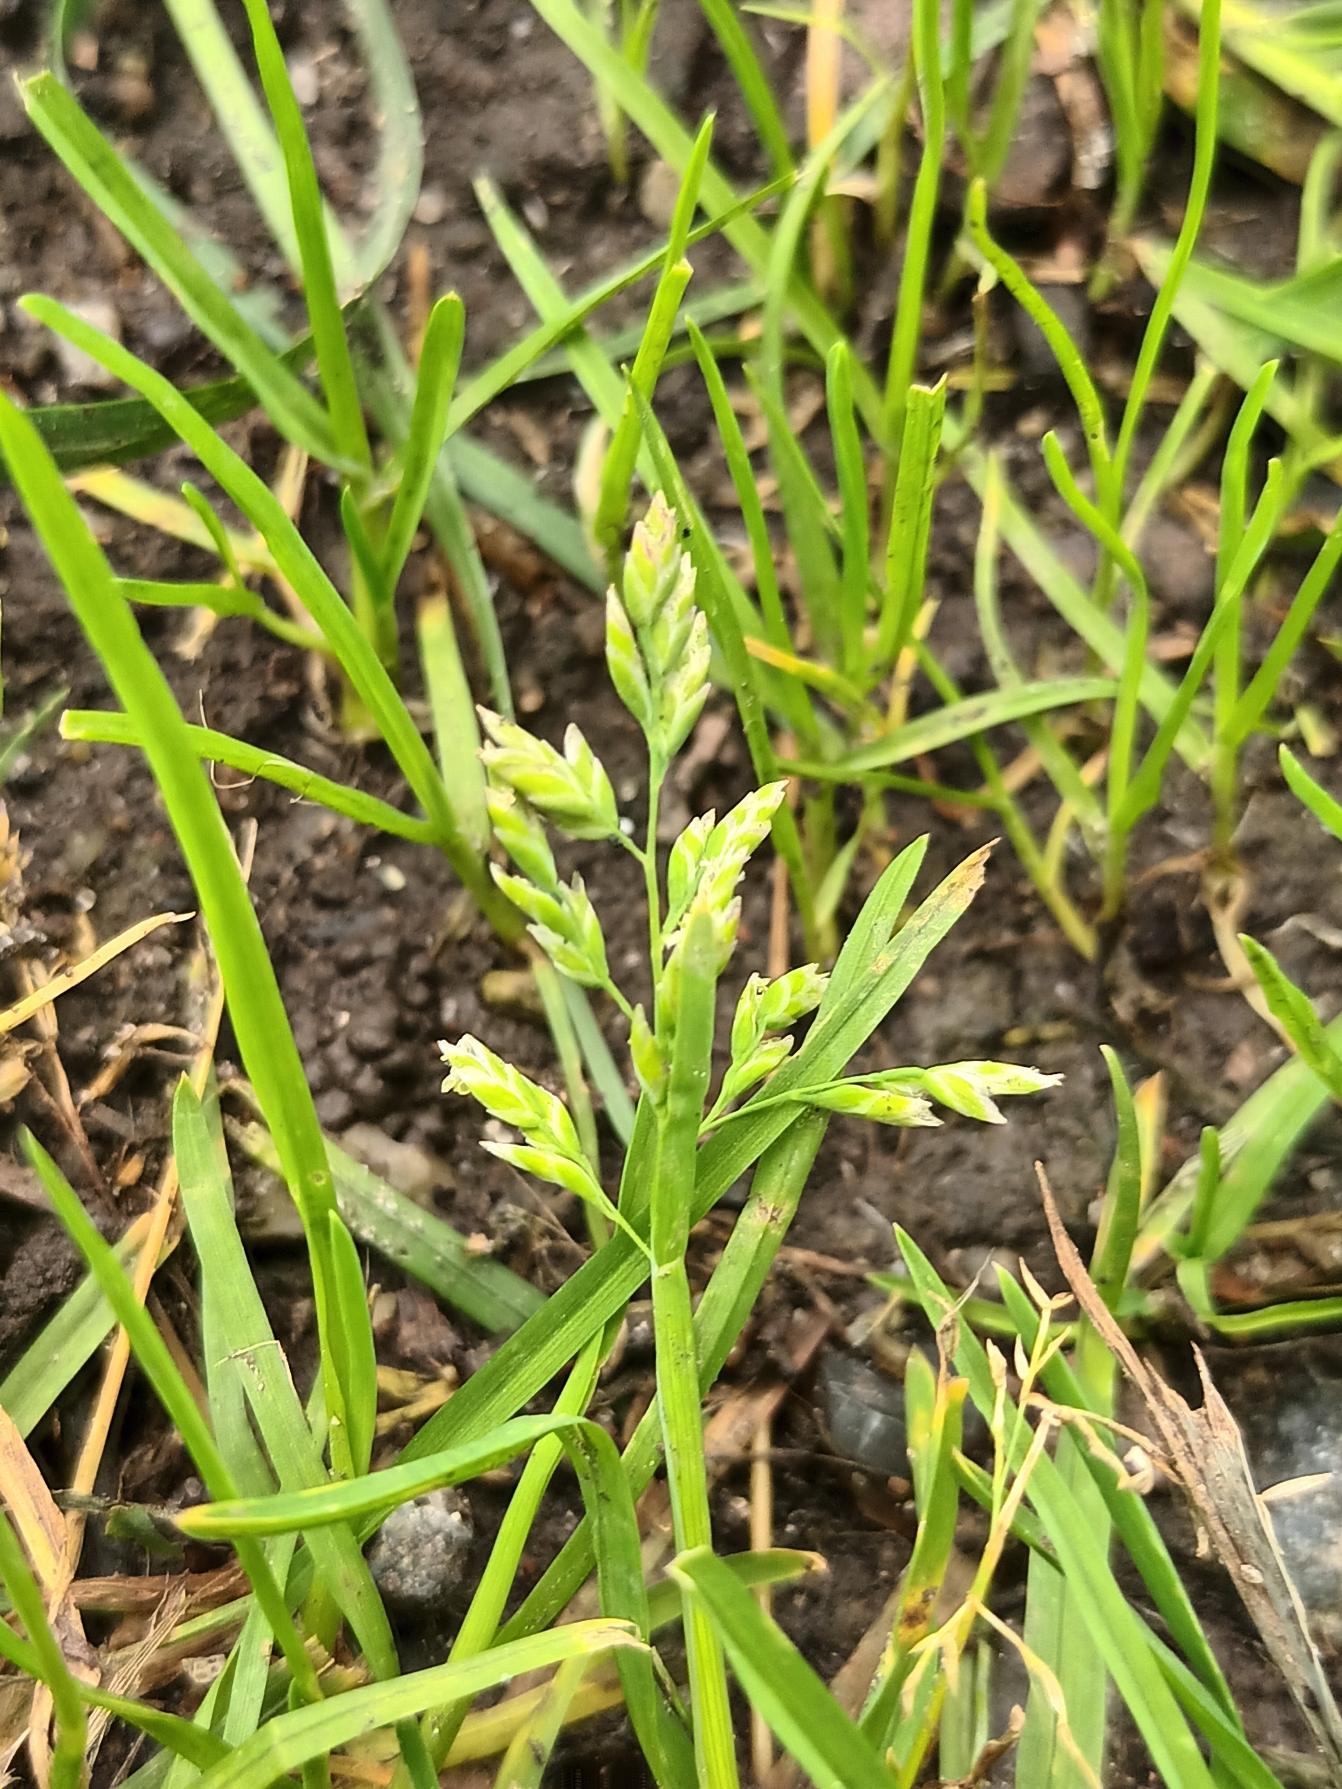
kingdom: Plantae
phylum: Tracheophyta
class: Liliopsida
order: Poales
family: Poaceae
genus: Poa
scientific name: Poa annua
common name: Enårig rapgræs
